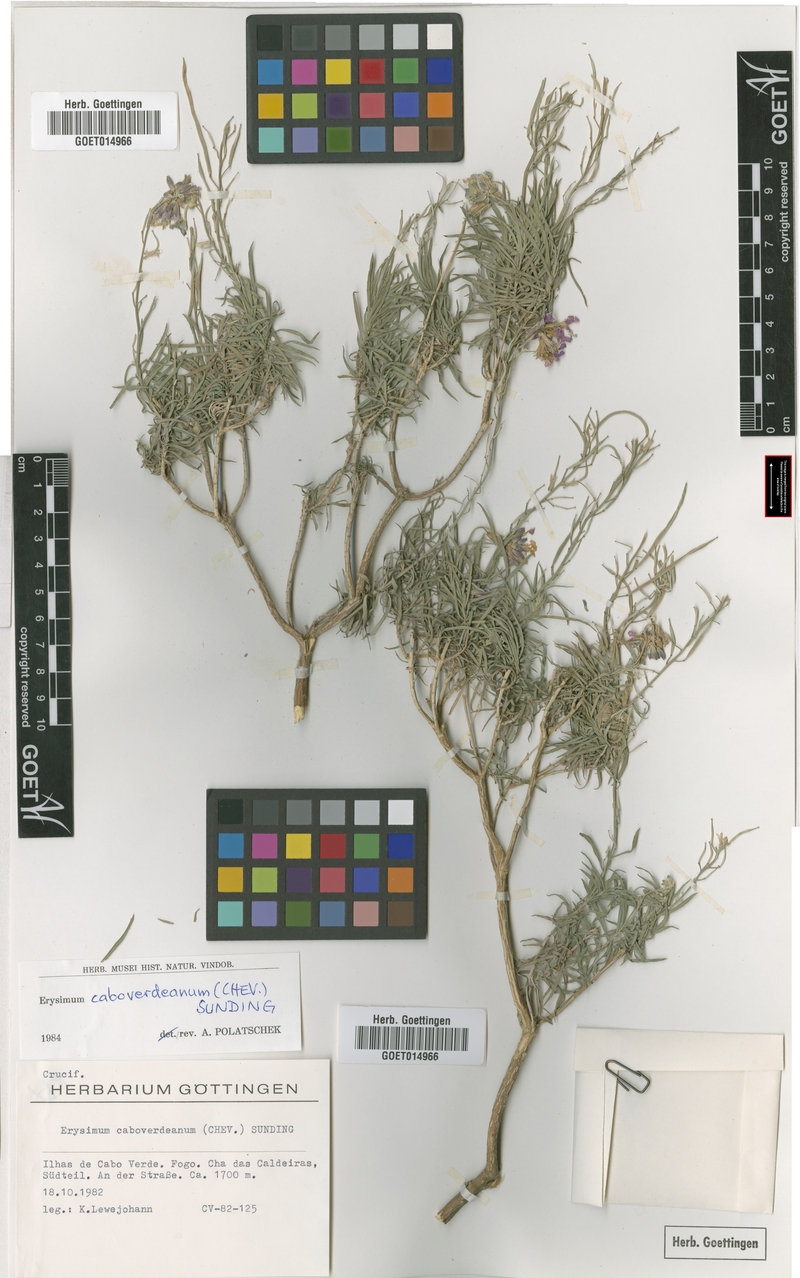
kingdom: Plantae
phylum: Tracheophyta
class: Magnoliopsida
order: Brassicales
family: Brassicaceae
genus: Erysimum
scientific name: Erysimum caboverdeanum
